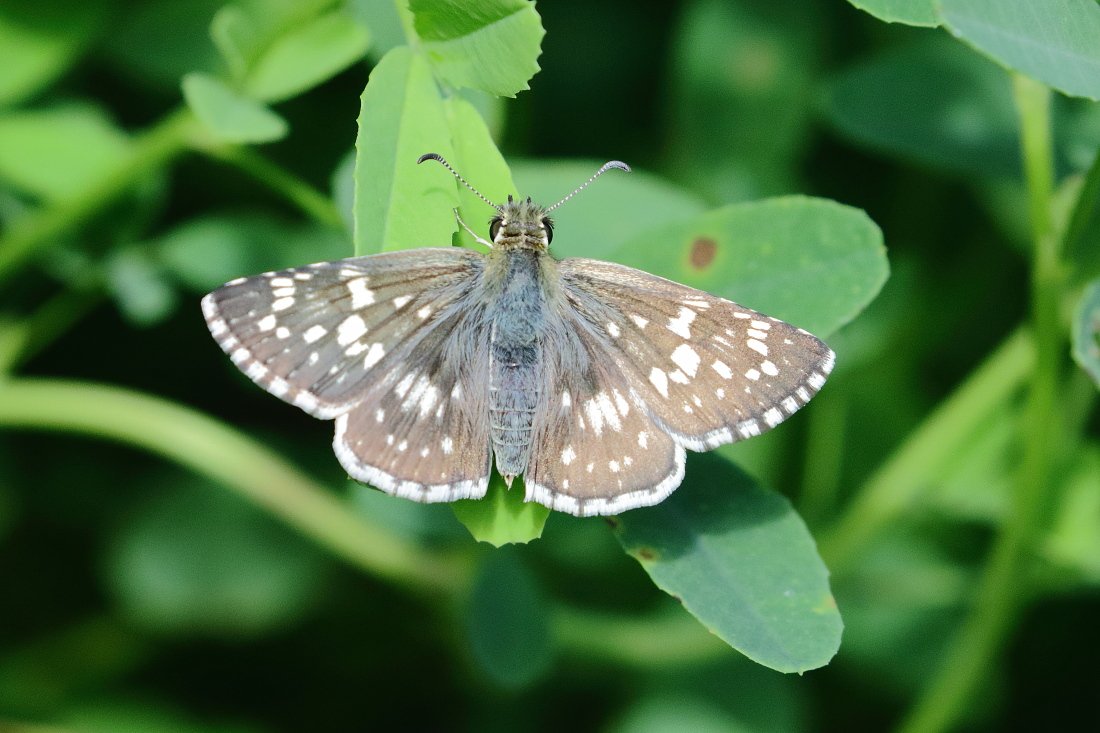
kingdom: Animalia
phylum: Arthropoda
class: Insecta
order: Lepidoptera
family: Hesperiidae
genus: Pyrgus
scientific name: Pyrgus communis
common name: Common Checkered-Skipper
